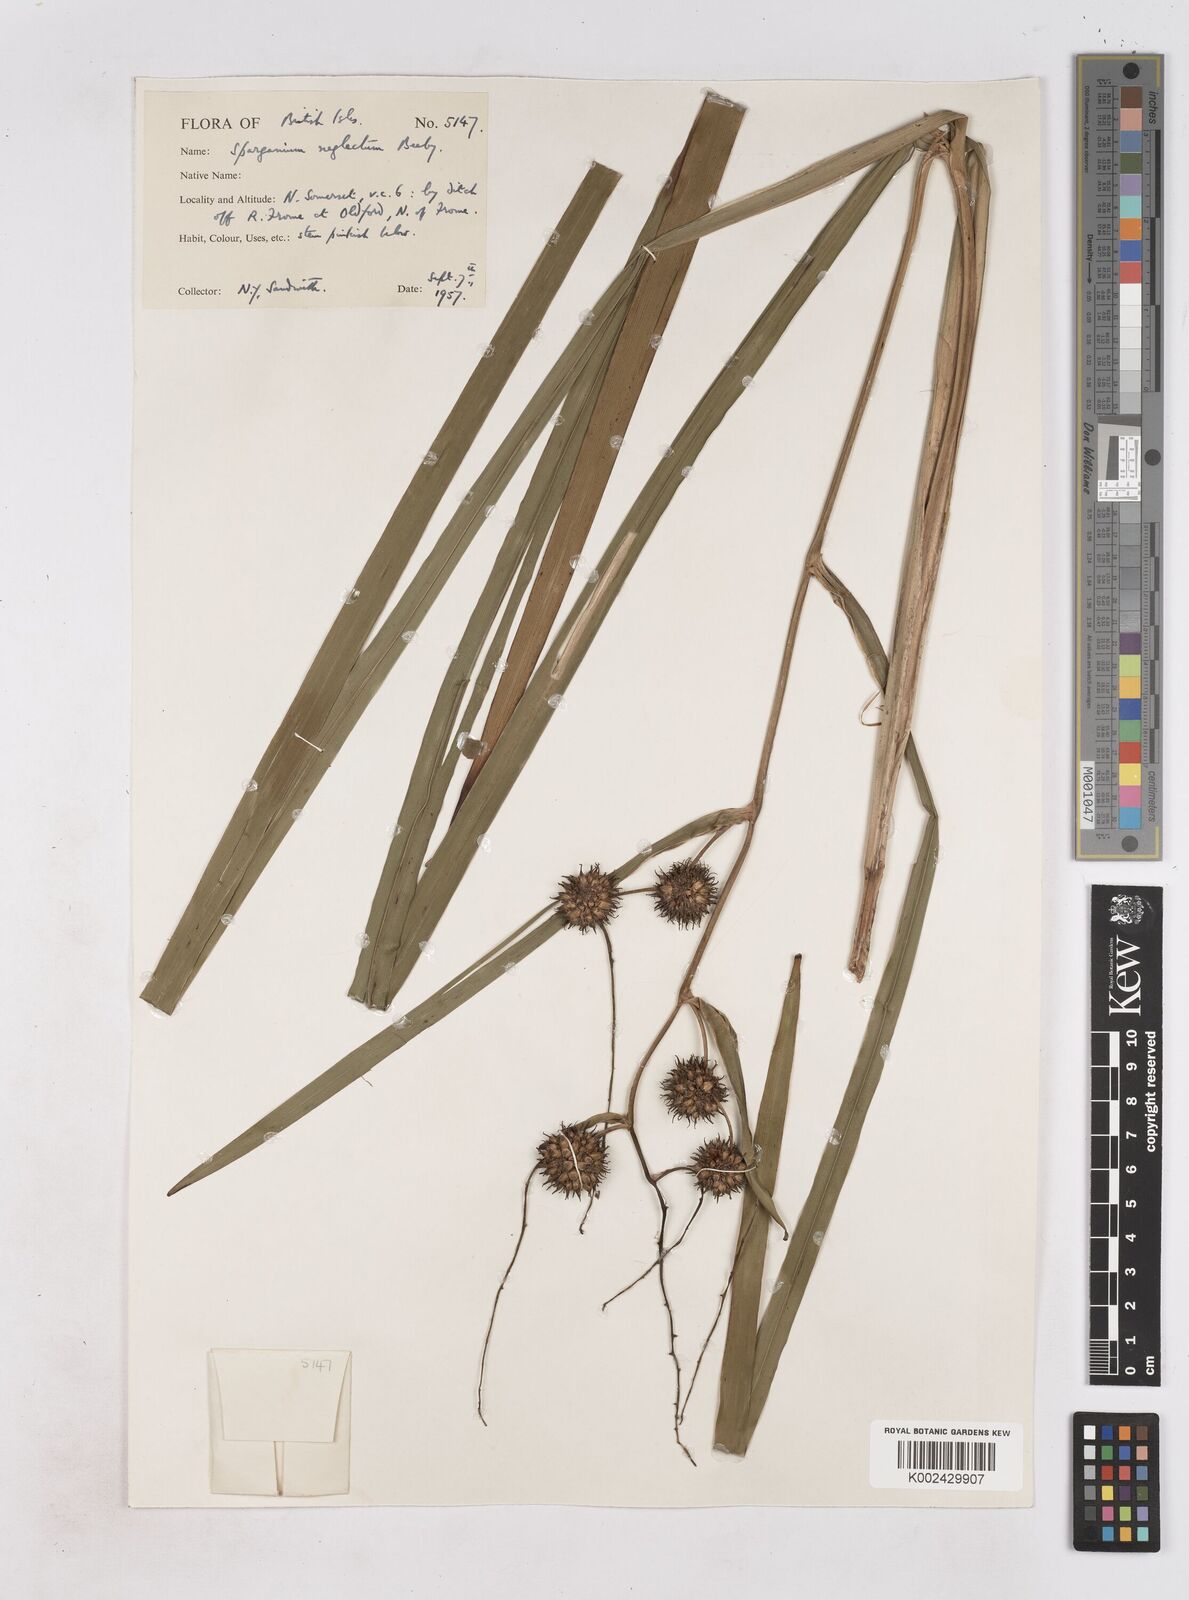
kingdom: Plantae
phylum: Tracheophyta
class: Liliopsida
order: Poales
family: Typhaceae
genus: Sparganium
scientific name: Sparganium erectum
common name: Branched bur-reed
